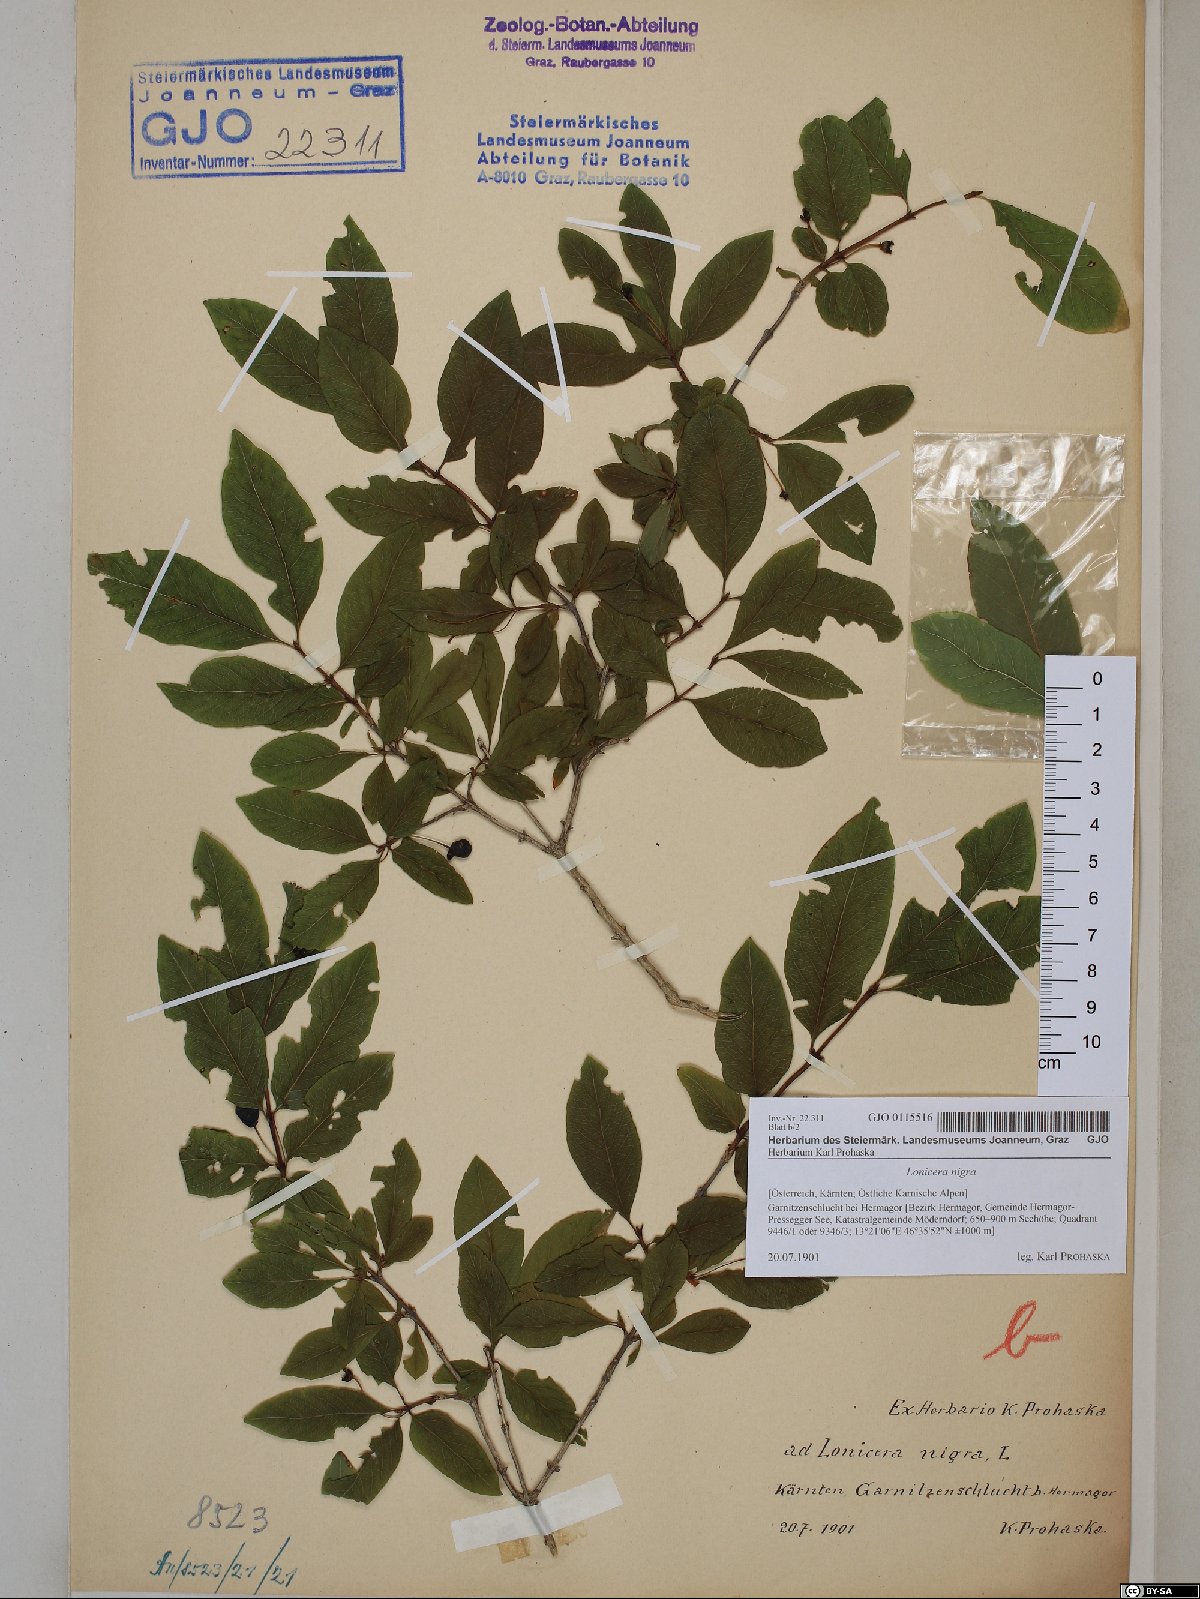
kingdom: Plantae
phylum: Tracheophyta
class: Magnoliopsida
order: Dipsacales
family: Caprifoliaceae
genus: Lonicera
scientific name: Lonicera nigra
